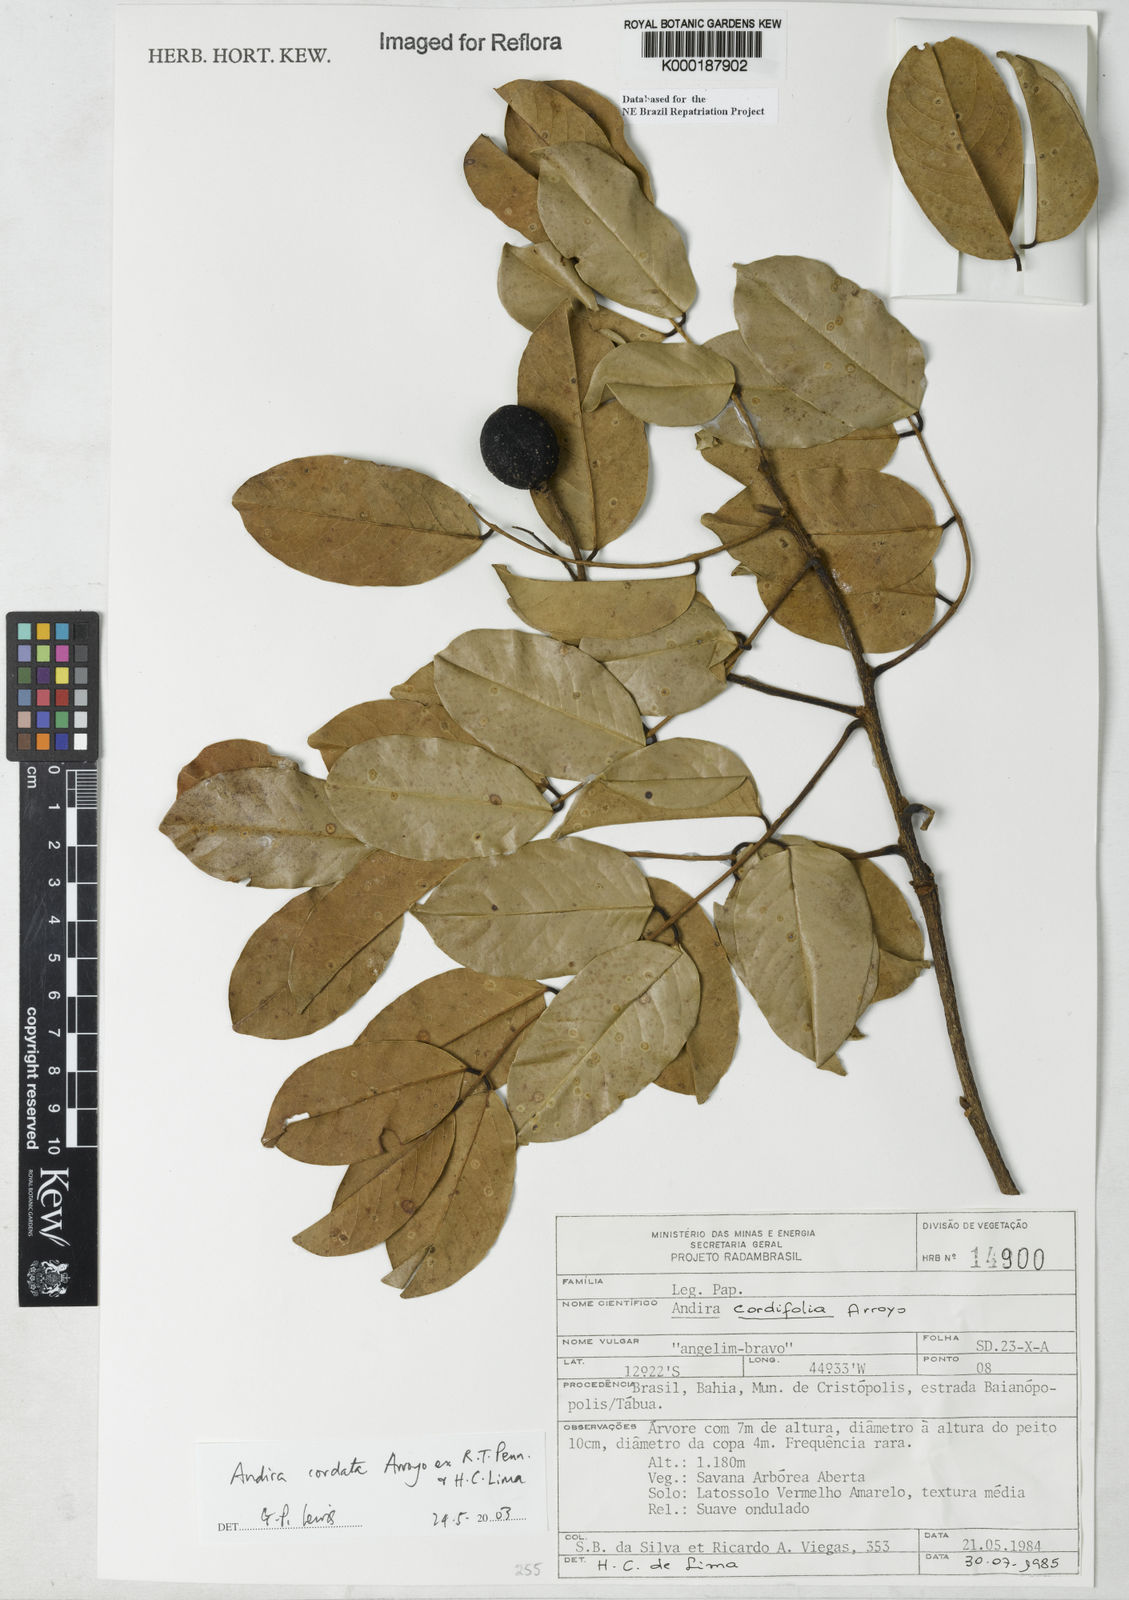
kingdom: Plantae
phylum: Tracheophyta
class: Magnoliopsida
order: Fabales
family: Fabaceae
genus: Andira
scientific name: Andira cordata
